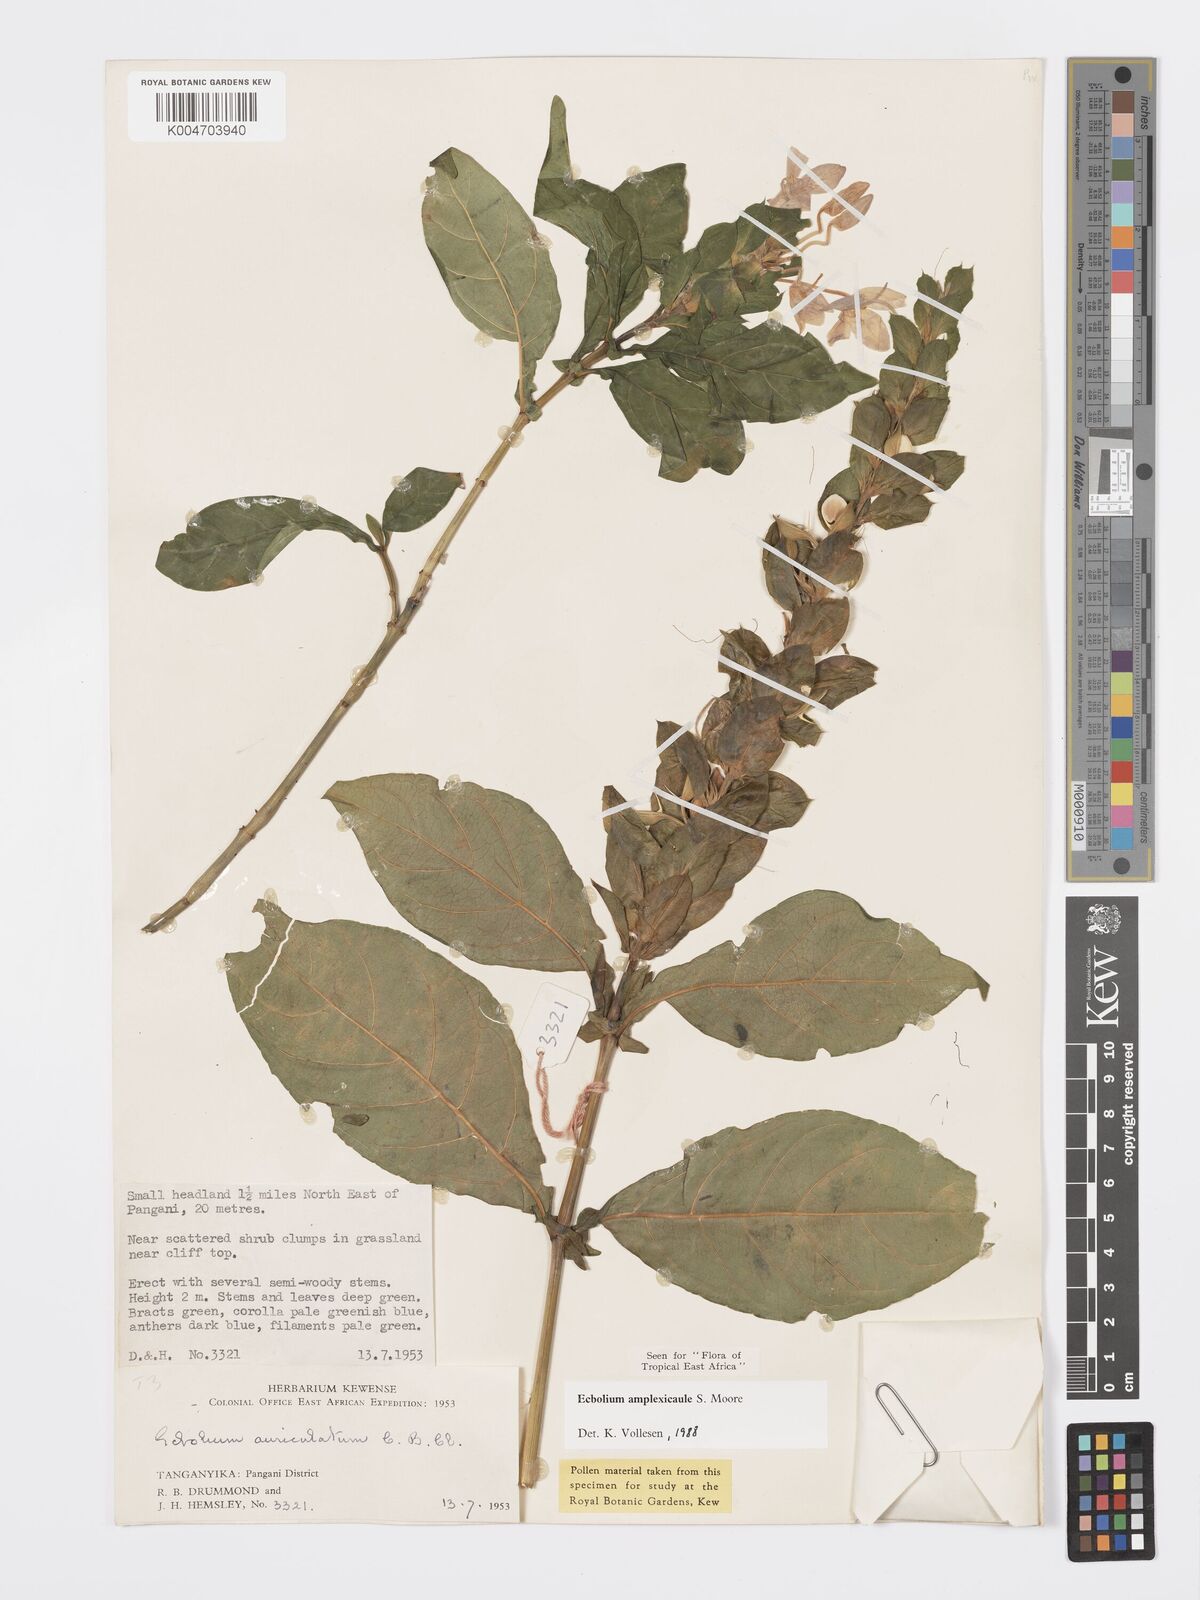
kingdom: Plantae
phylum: Tracheophyta
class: Magnoliopsida
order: Lamiales
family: Acanthaceae
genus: Ecbolium
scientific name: Ecbolium amplexicaule
